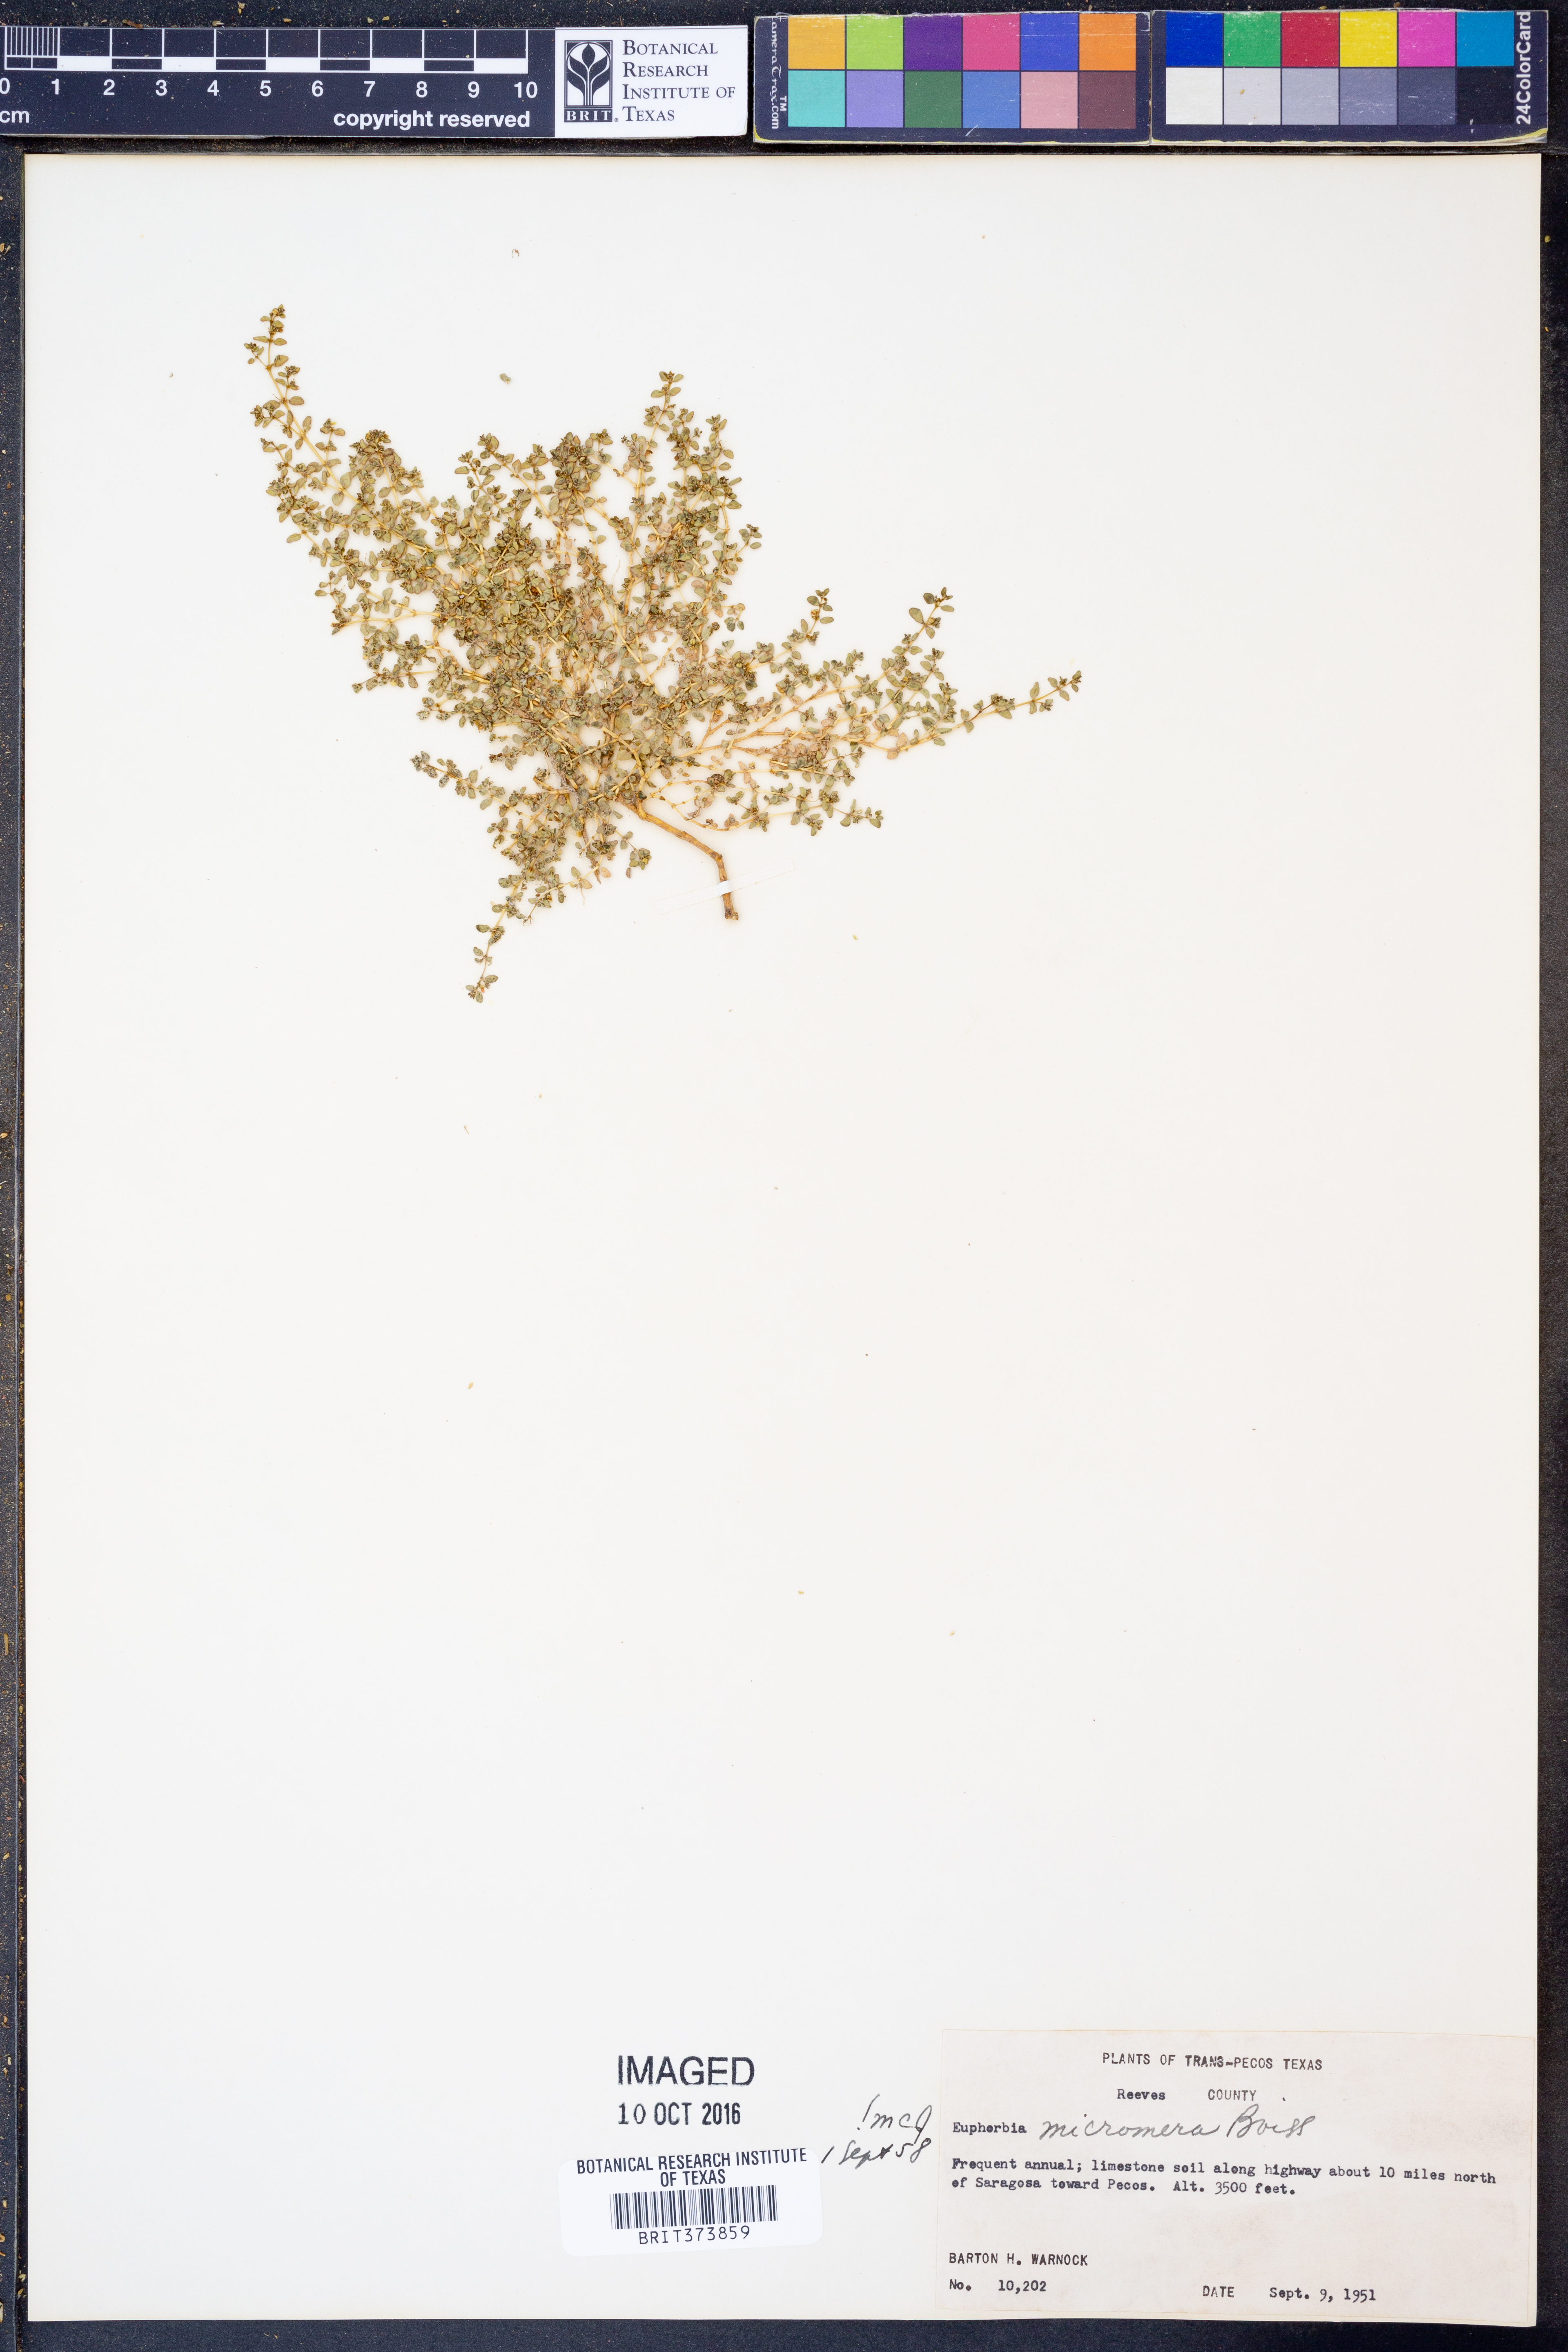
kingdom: Plantae
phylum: Tracheophyta
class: Magnoliopsida
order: Malpighiales
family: Euphorbiaceae
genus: Euphorbia
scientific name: Euphorbia micromera
